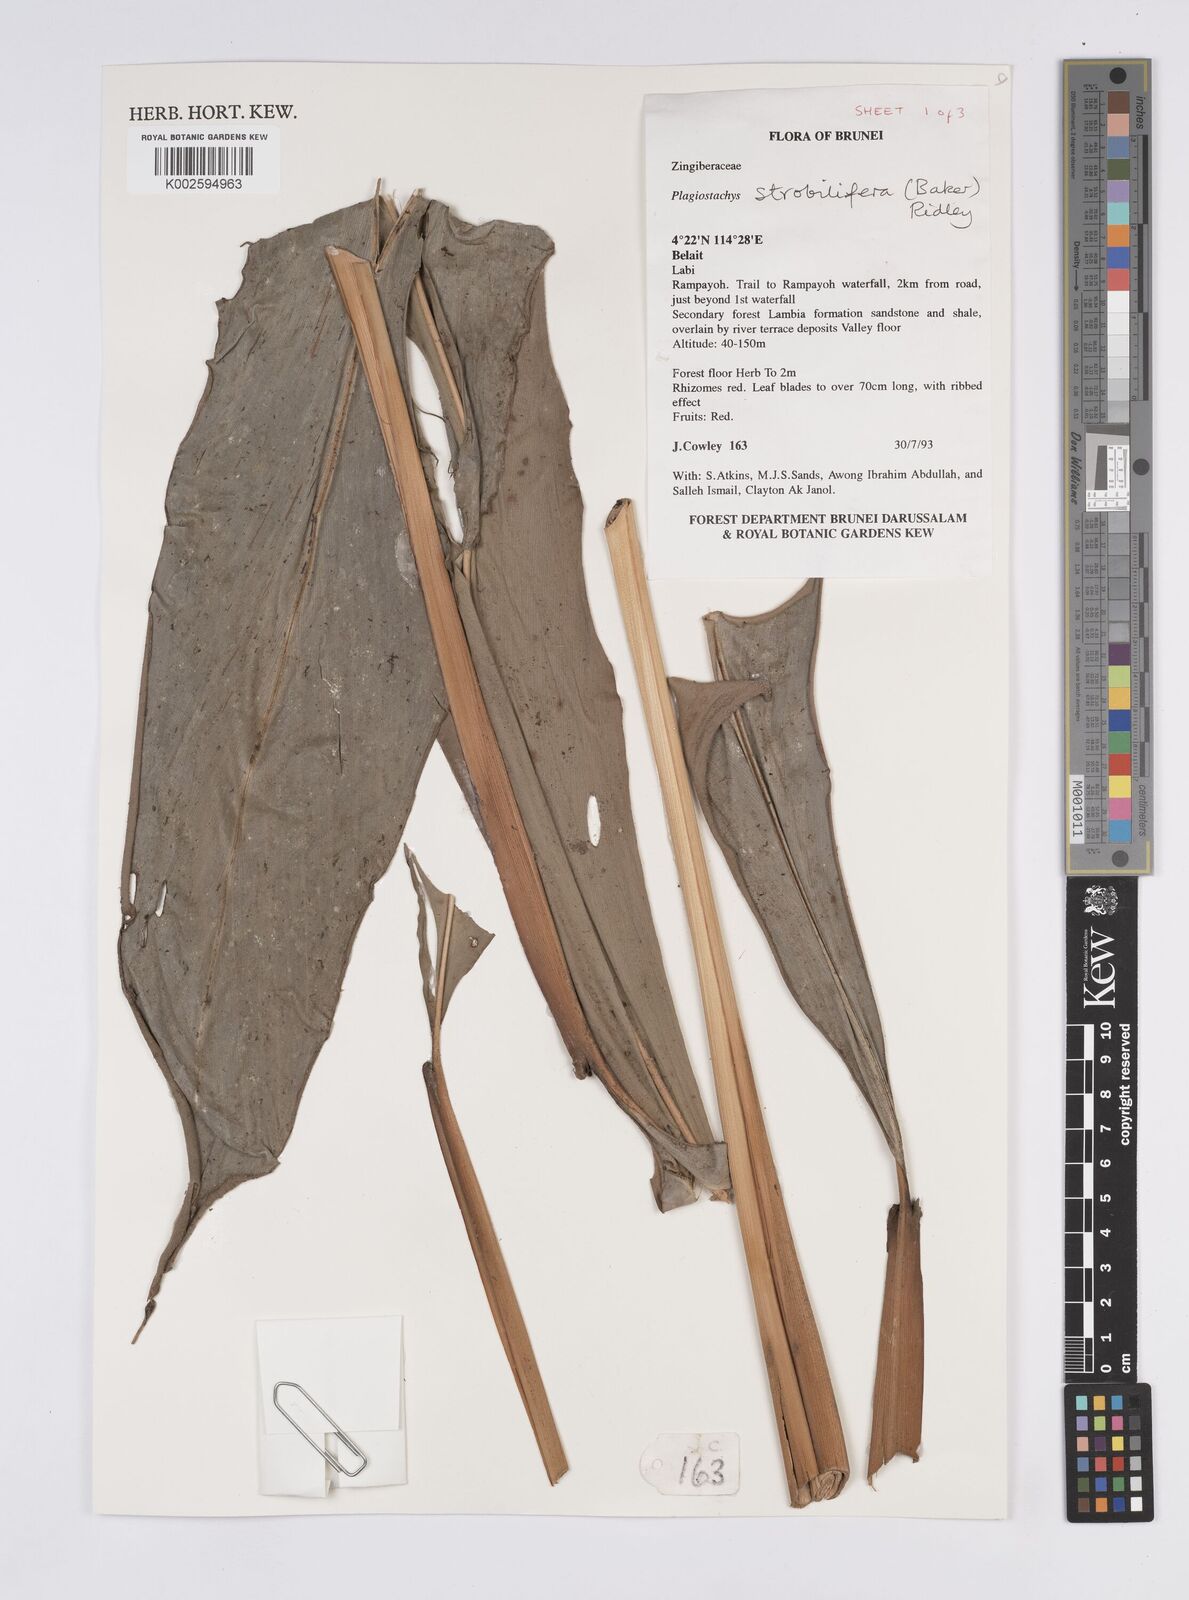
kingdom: Plantae
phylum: Tracheophyta
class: Liliopsida
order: Zingiberales
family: Zingiberaceae
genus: Plagiostachys
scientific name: Plagiostachys strobilifera
